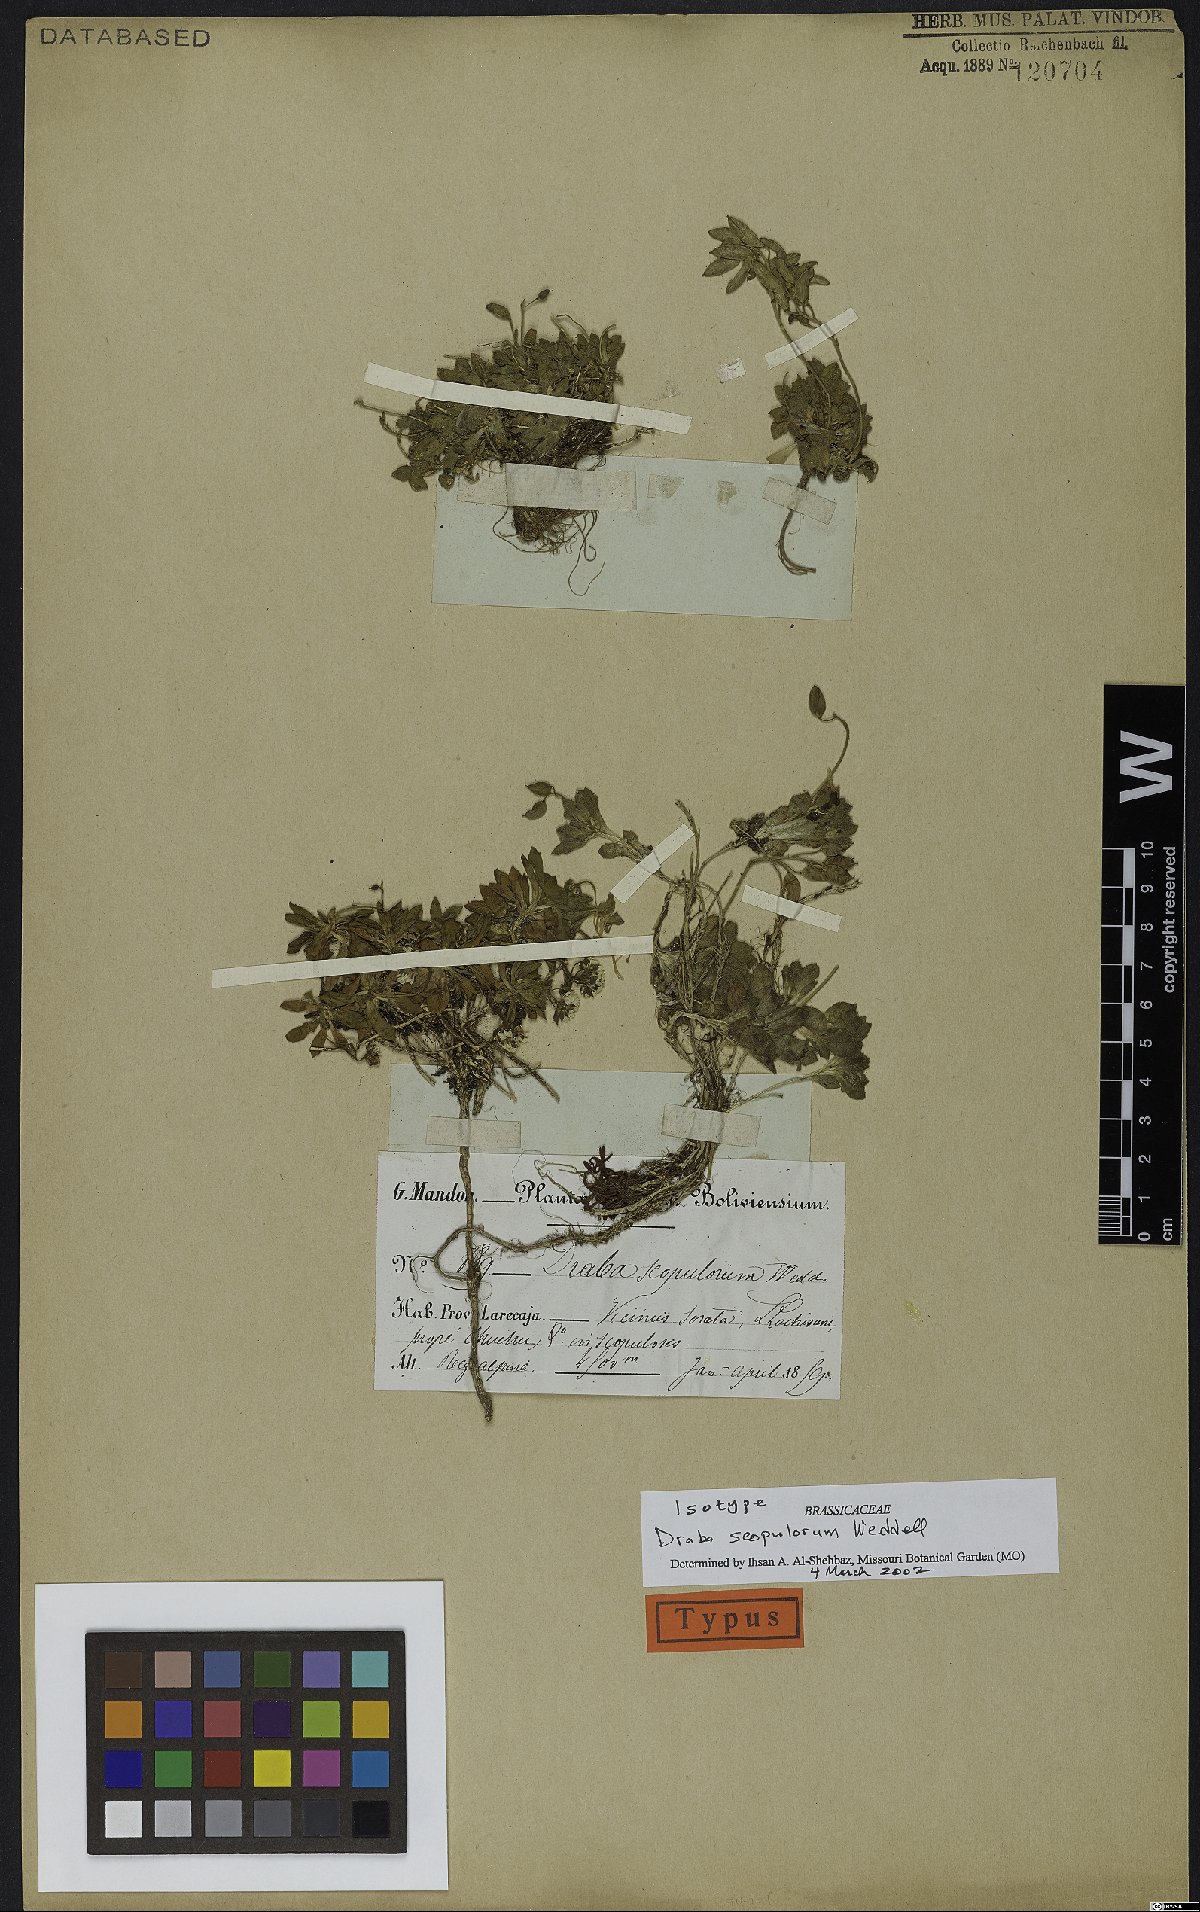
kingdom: Plantae
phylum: Tracheophyta
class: Magnoliopsida
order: Brassicales
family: Brassicaceae
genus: Draba
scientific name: Draba scopulorum
